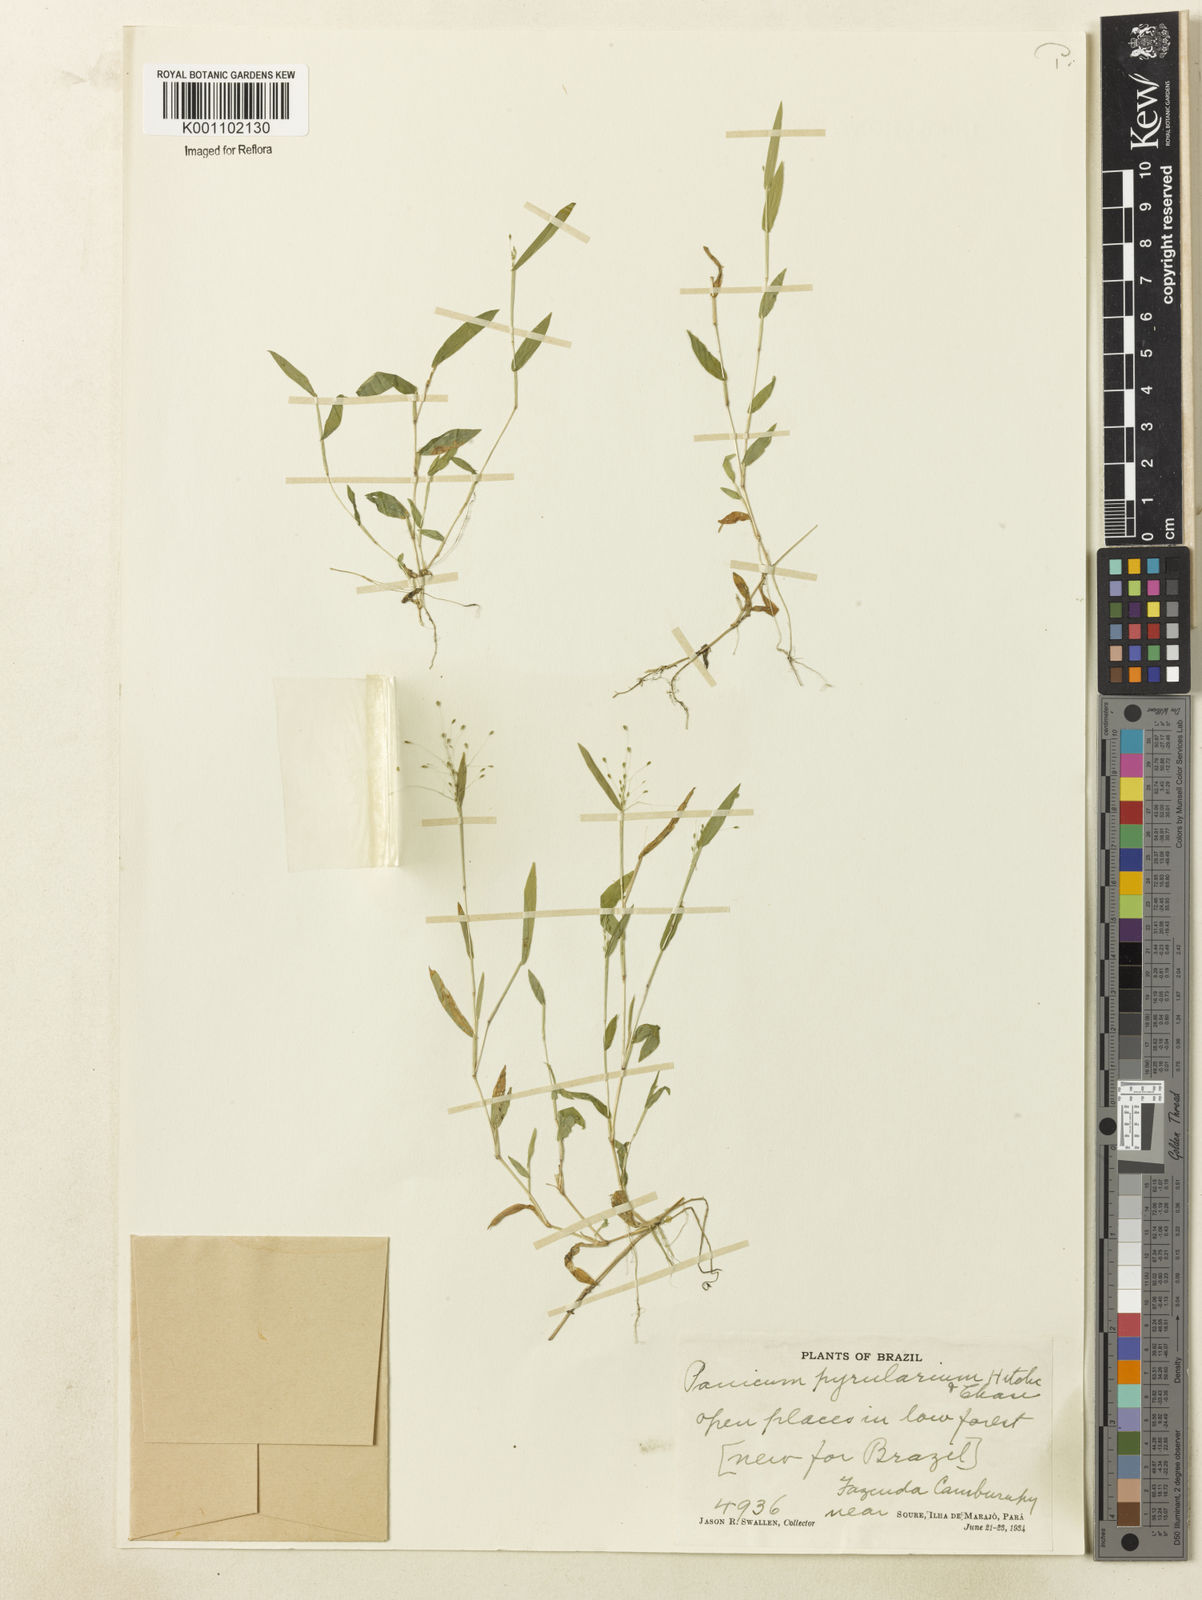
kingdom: Plantae
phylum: Tracheophyta
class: Liliopsida
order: Poales
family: Poaceae
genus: Trichanthecium
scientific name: Trichanthecium pyrularium
